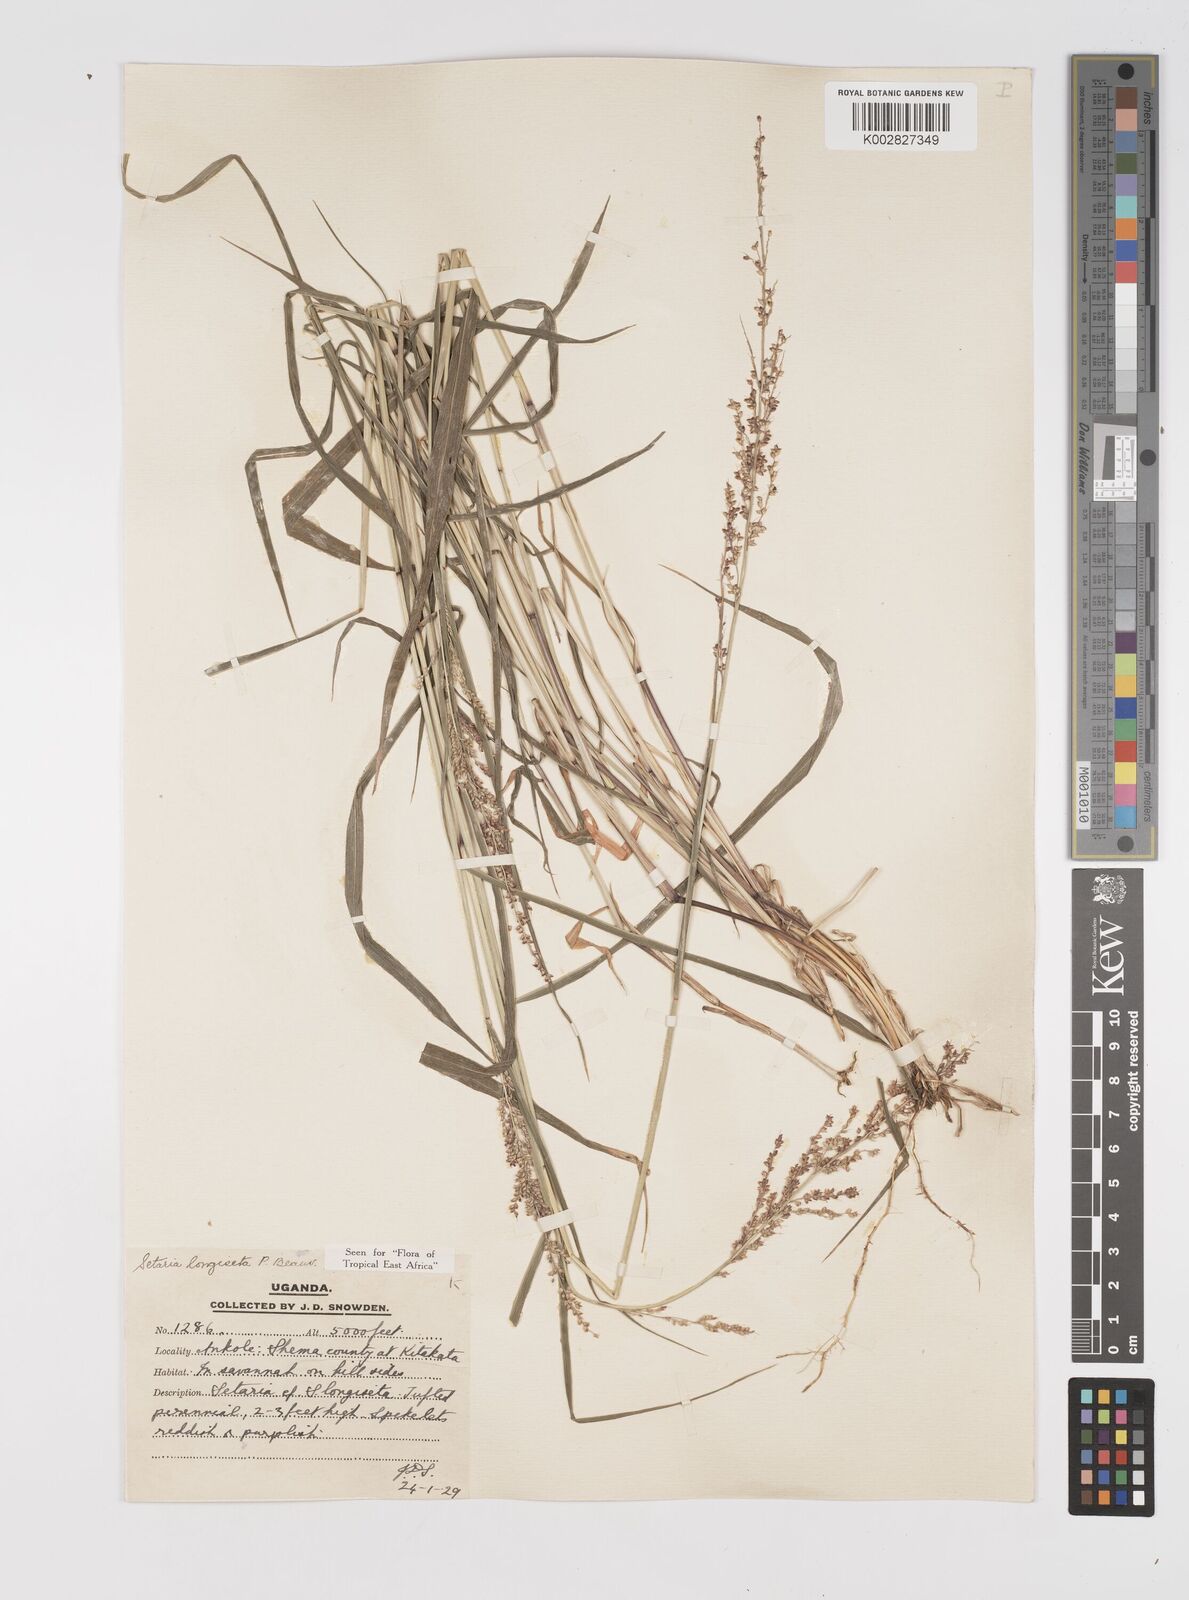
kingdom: Plantae
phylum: Tracheophyta
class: Liliopsida
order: Poales
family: Poaceae
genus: Setaria
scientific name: Setaria longiseta
